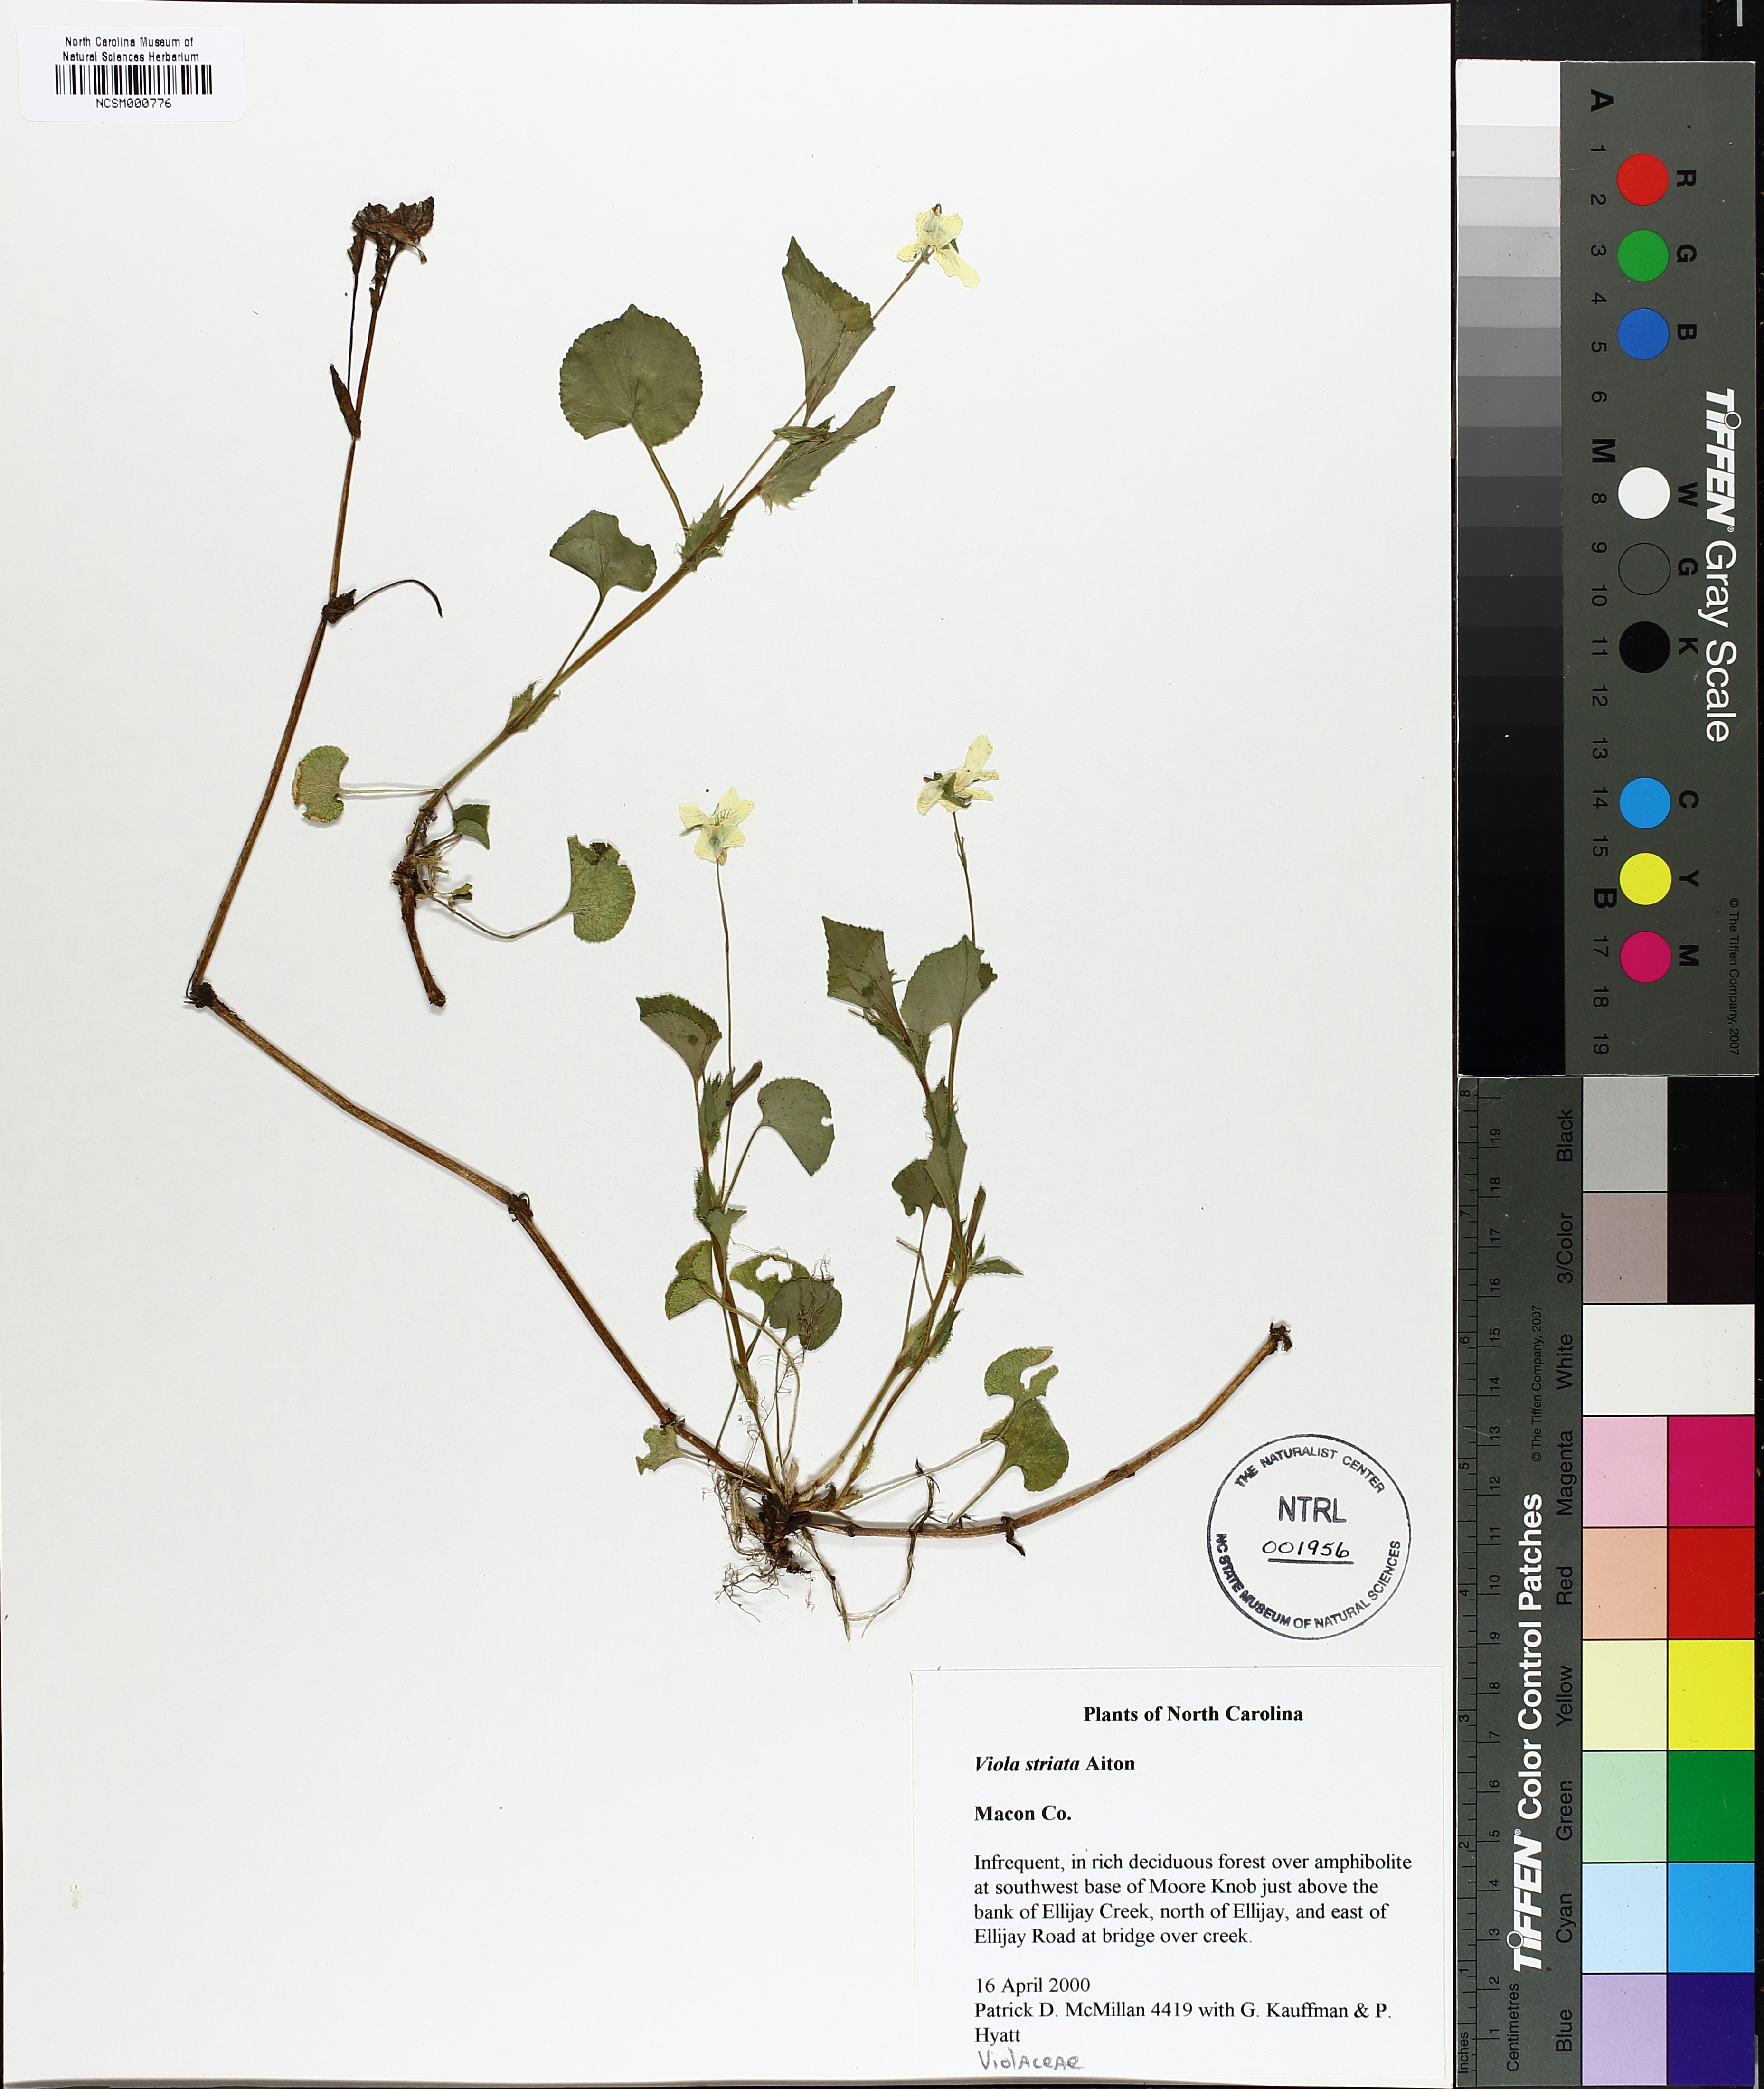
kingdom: Plantae
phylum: Tracheophyta
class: Magnoliopsida
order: Malpighiales
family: Violaceae
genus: Viola
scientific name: Viola striata
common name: Cream violet
